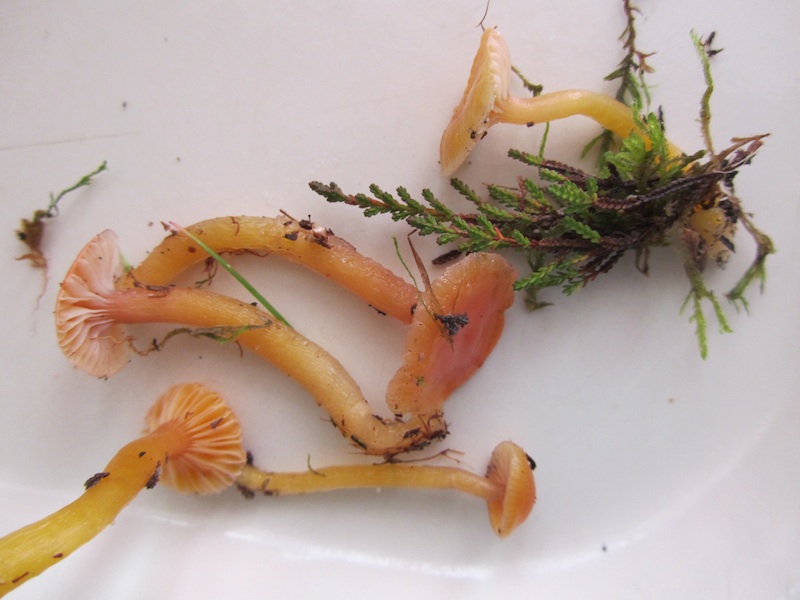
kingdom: Fungi
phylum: Basidiomycota
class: Agaricomycetes
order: Agaricales
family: Hygrophoraceae
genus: Gliophorus
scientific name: Gliophorus laetus
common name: brusk-vokshat
